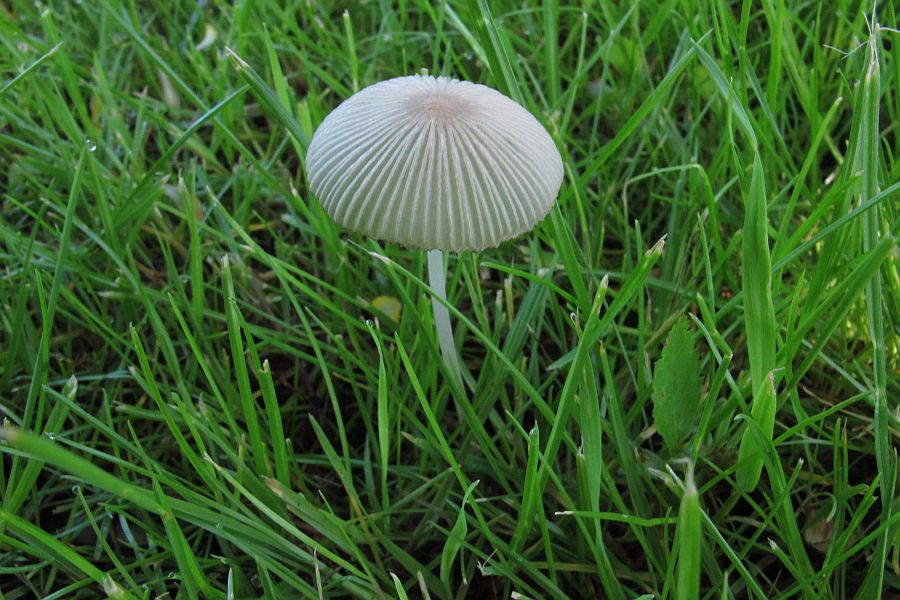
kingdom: Fungi
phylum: Basidiomycota
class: Agaricomycetes
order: Agaricales
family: Psathyrellaceae
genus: Parasola
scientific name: Parasola lactea
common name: glat hjulhat
